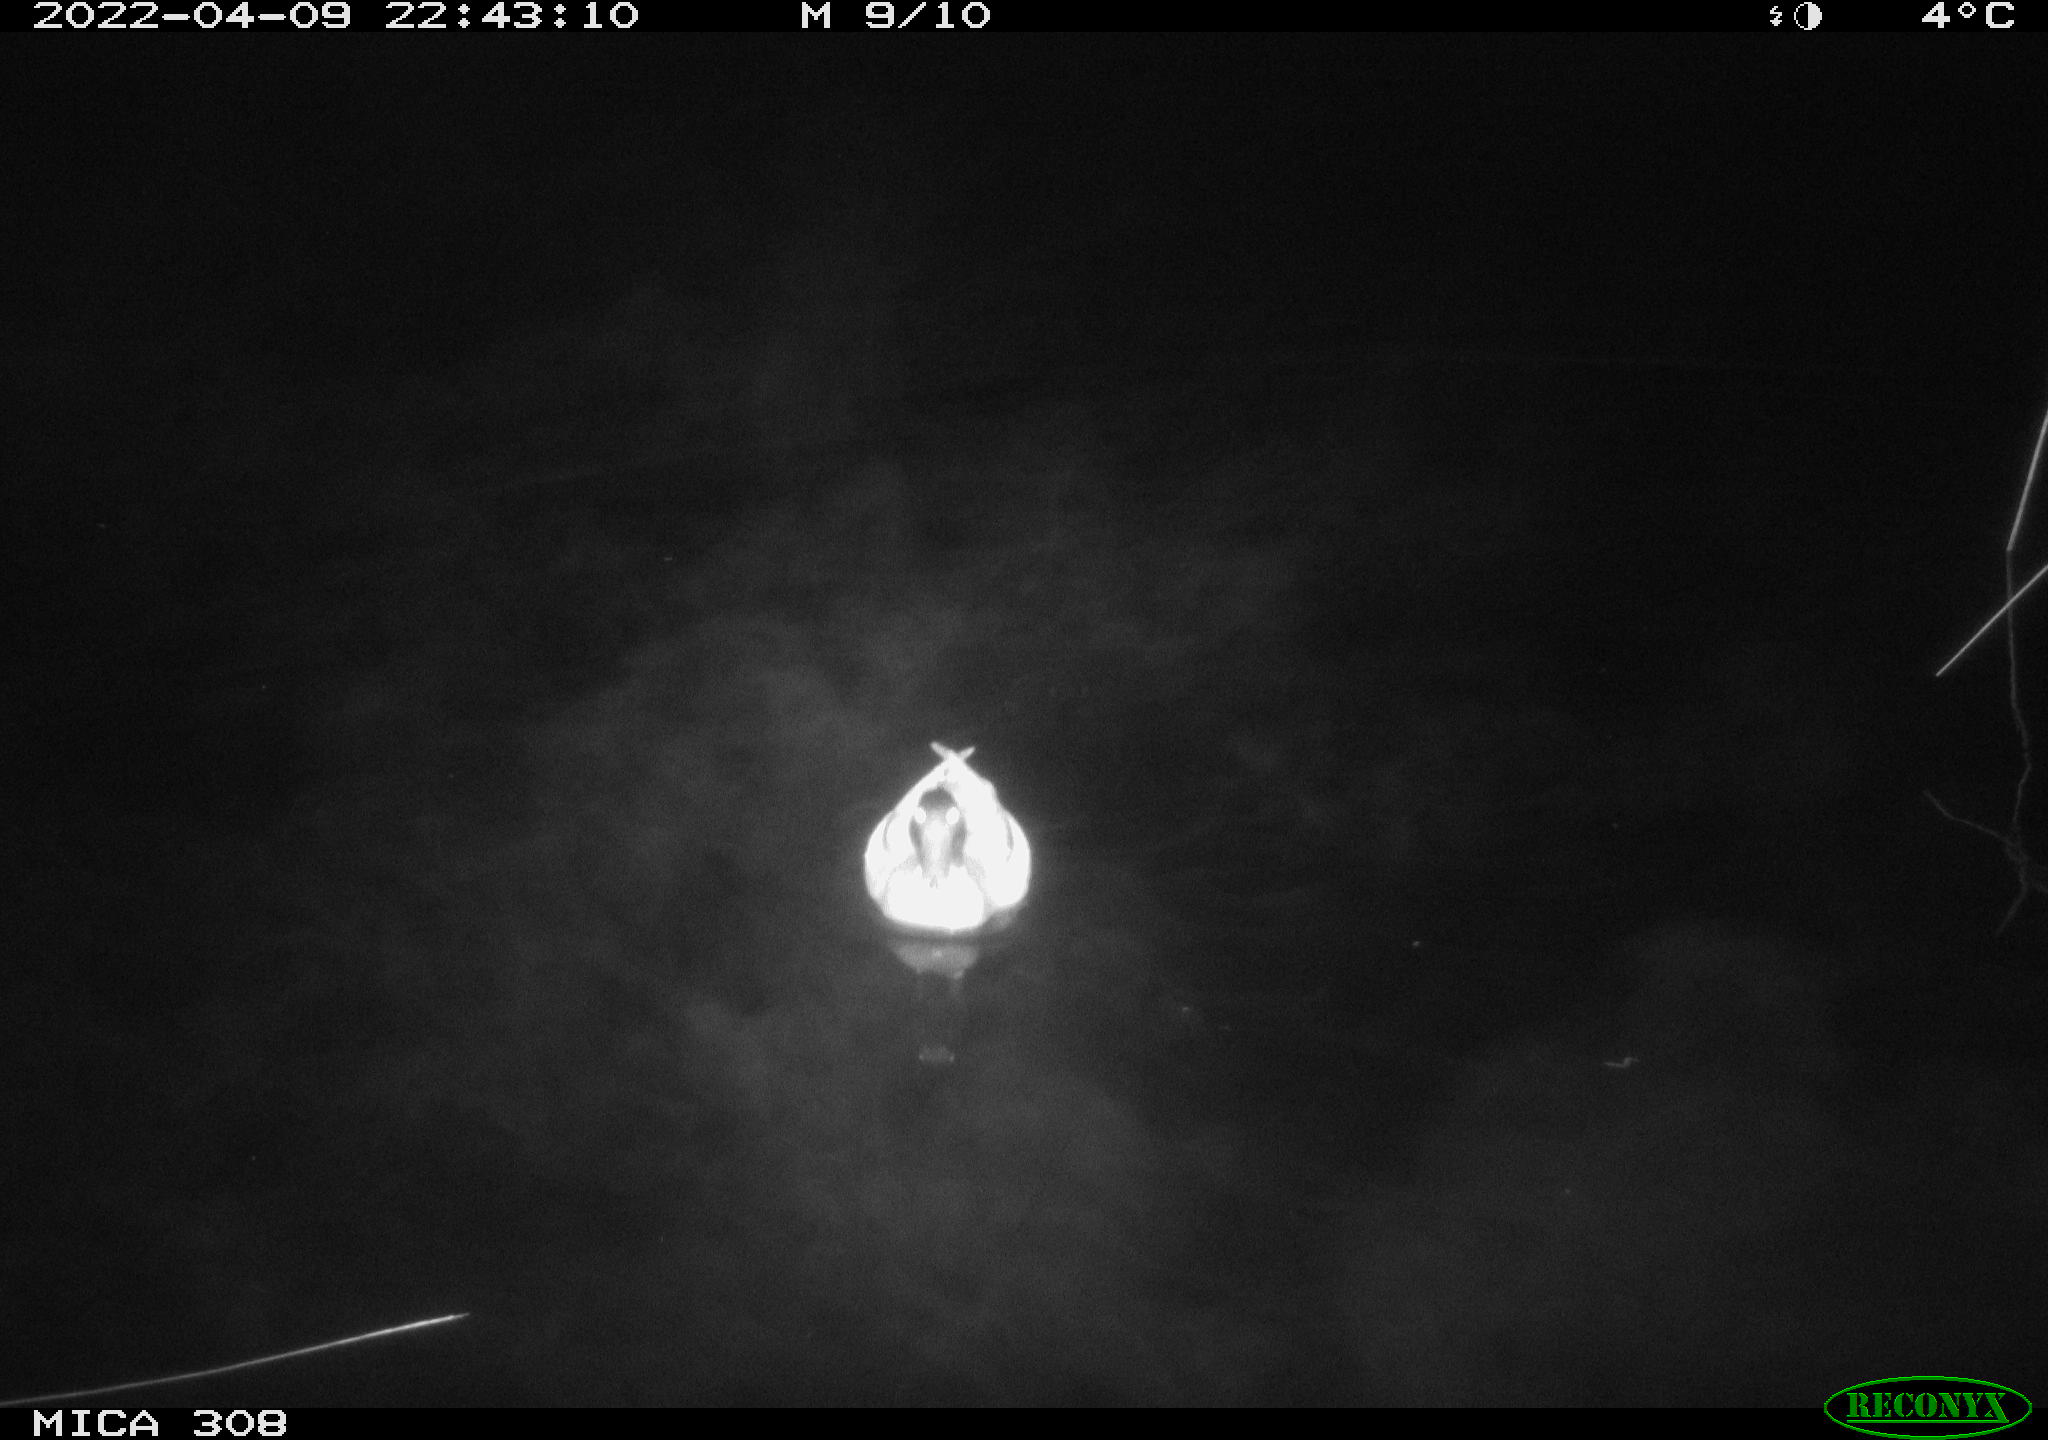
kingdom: Animalia
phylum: Chordata
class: Aves
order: Gruiformes
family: Rallidae
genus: Fulica
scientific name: Fulica atra
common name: Eurasian coot
